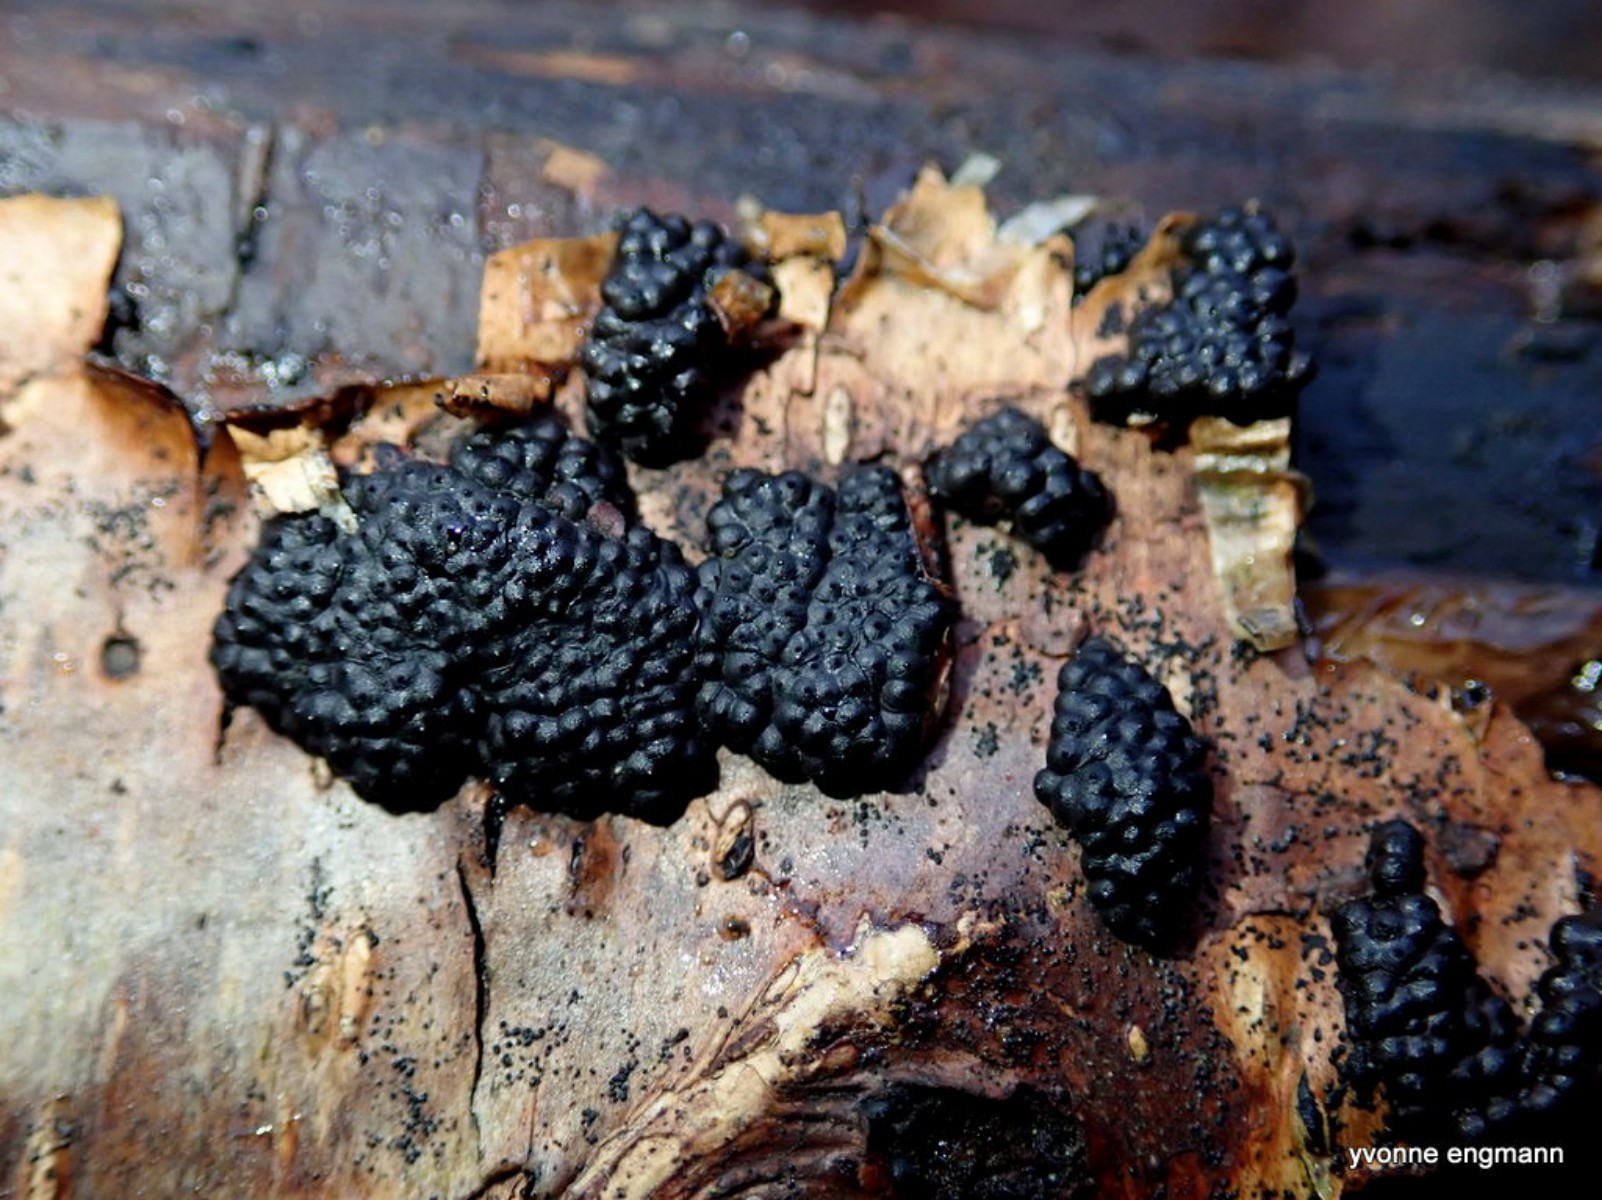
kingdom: Fungi
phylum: Ascomycota
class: Sordariomycetes
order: Xylariales
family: Hypoxylaceae
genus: Jackrogersella
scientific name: Jackrogersella multiformis
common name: foranderlig kulbær
